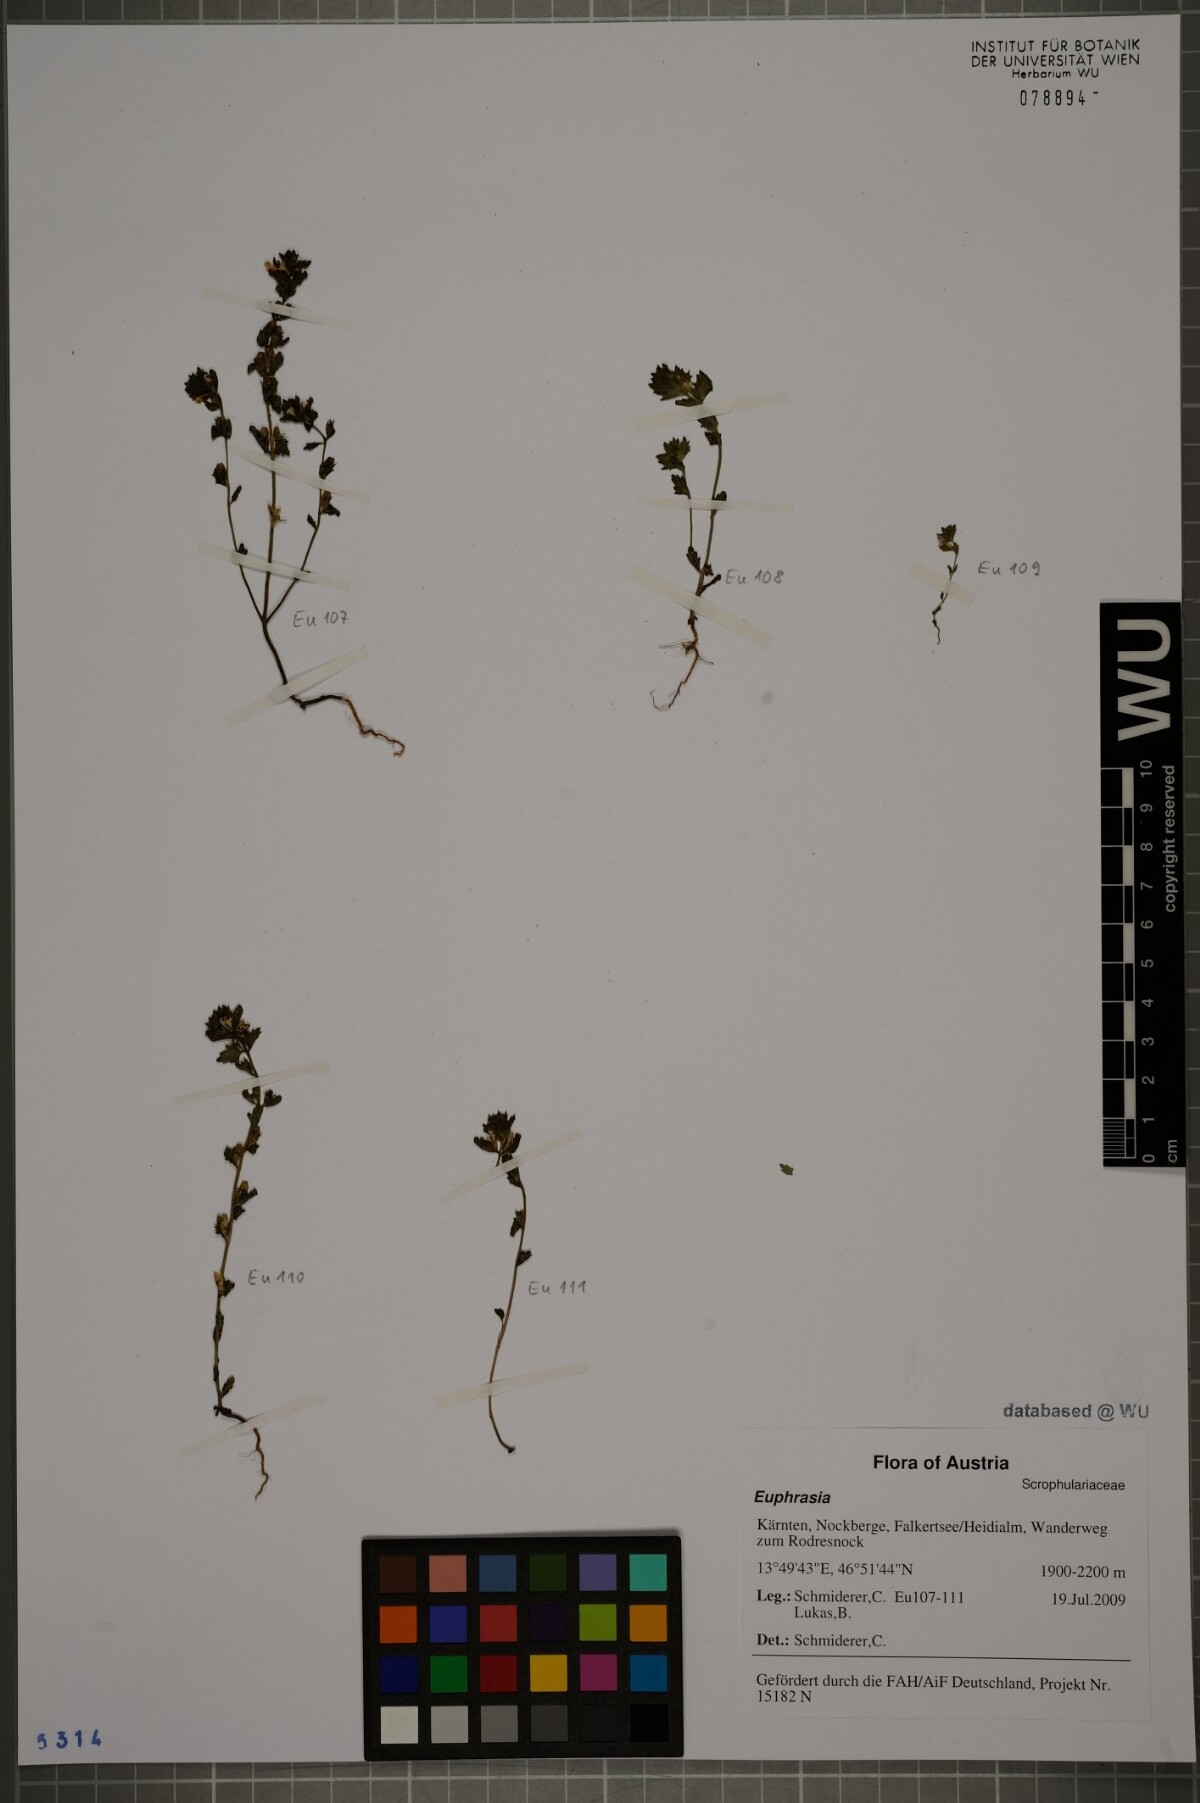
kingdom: Plantae
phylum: Tracheophyta
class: Magnoliopsida
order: Lamiales
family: Orobanchaceae
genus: Euphrasia
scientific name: Euphrasia
